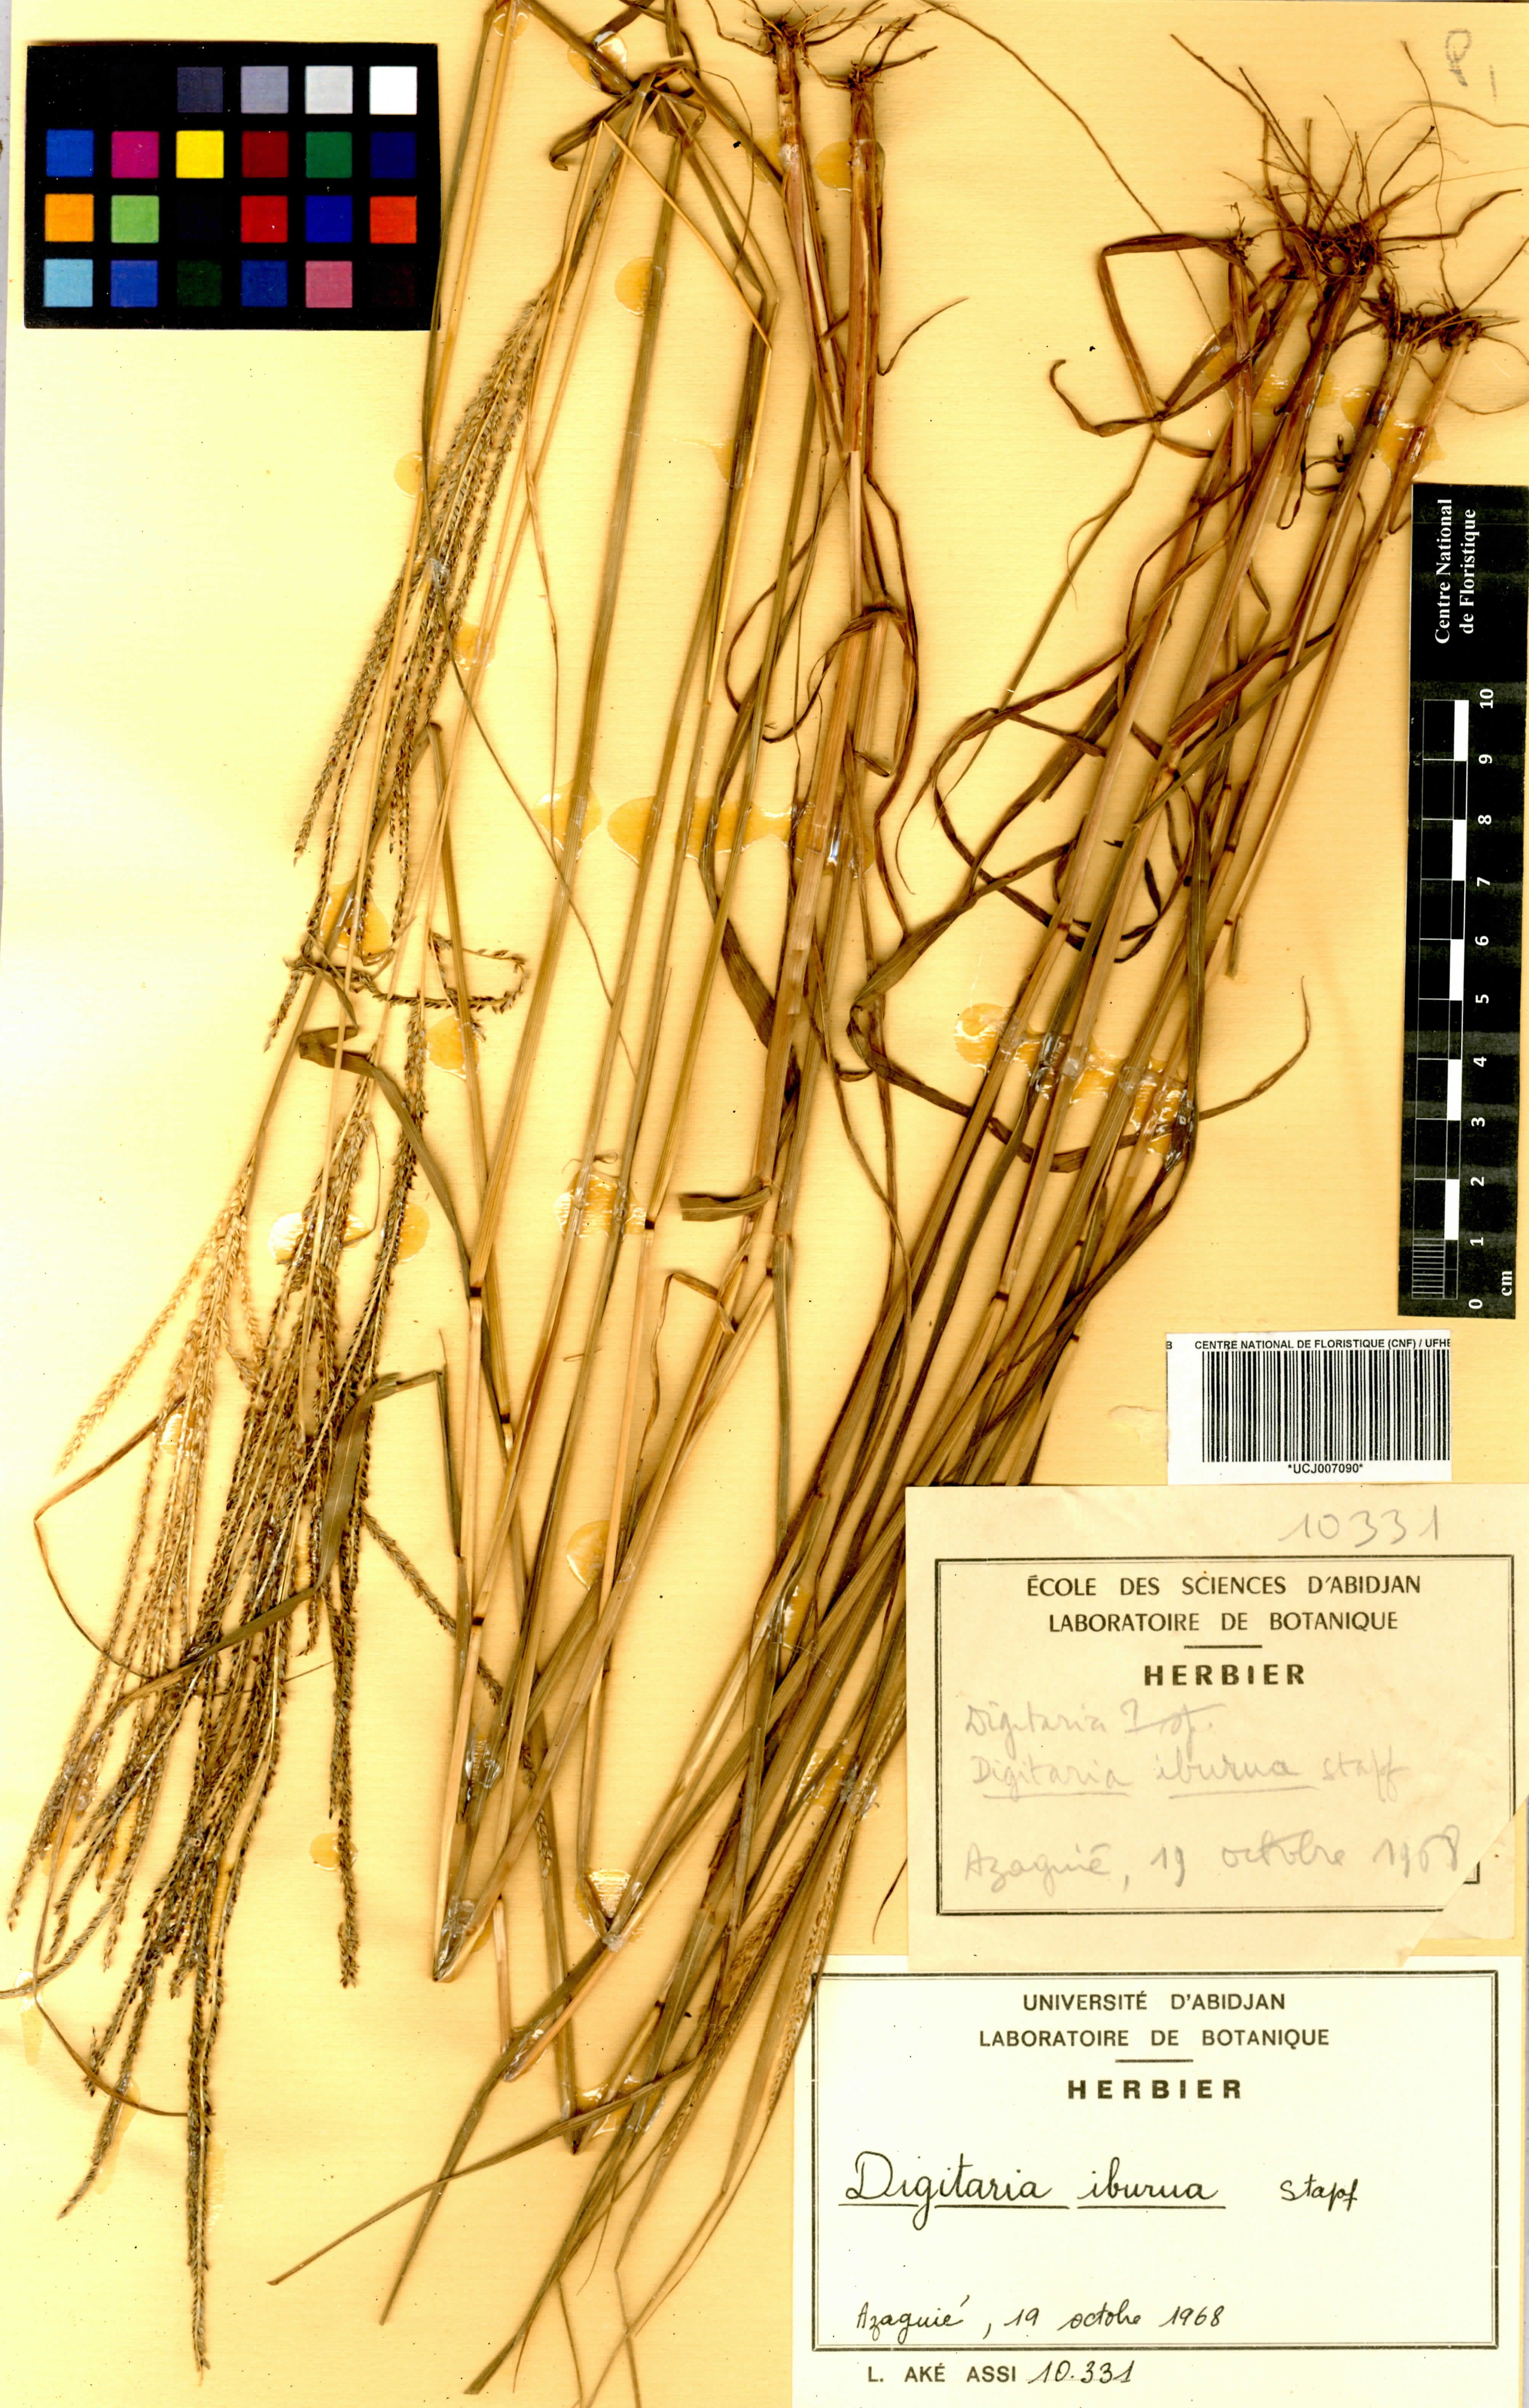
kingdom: Plantae
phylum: Tracheophyta
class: Liliopsida
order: Poales
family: Poaceae
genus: Digitaria
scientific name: Digitaria iburua
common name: Black acha
